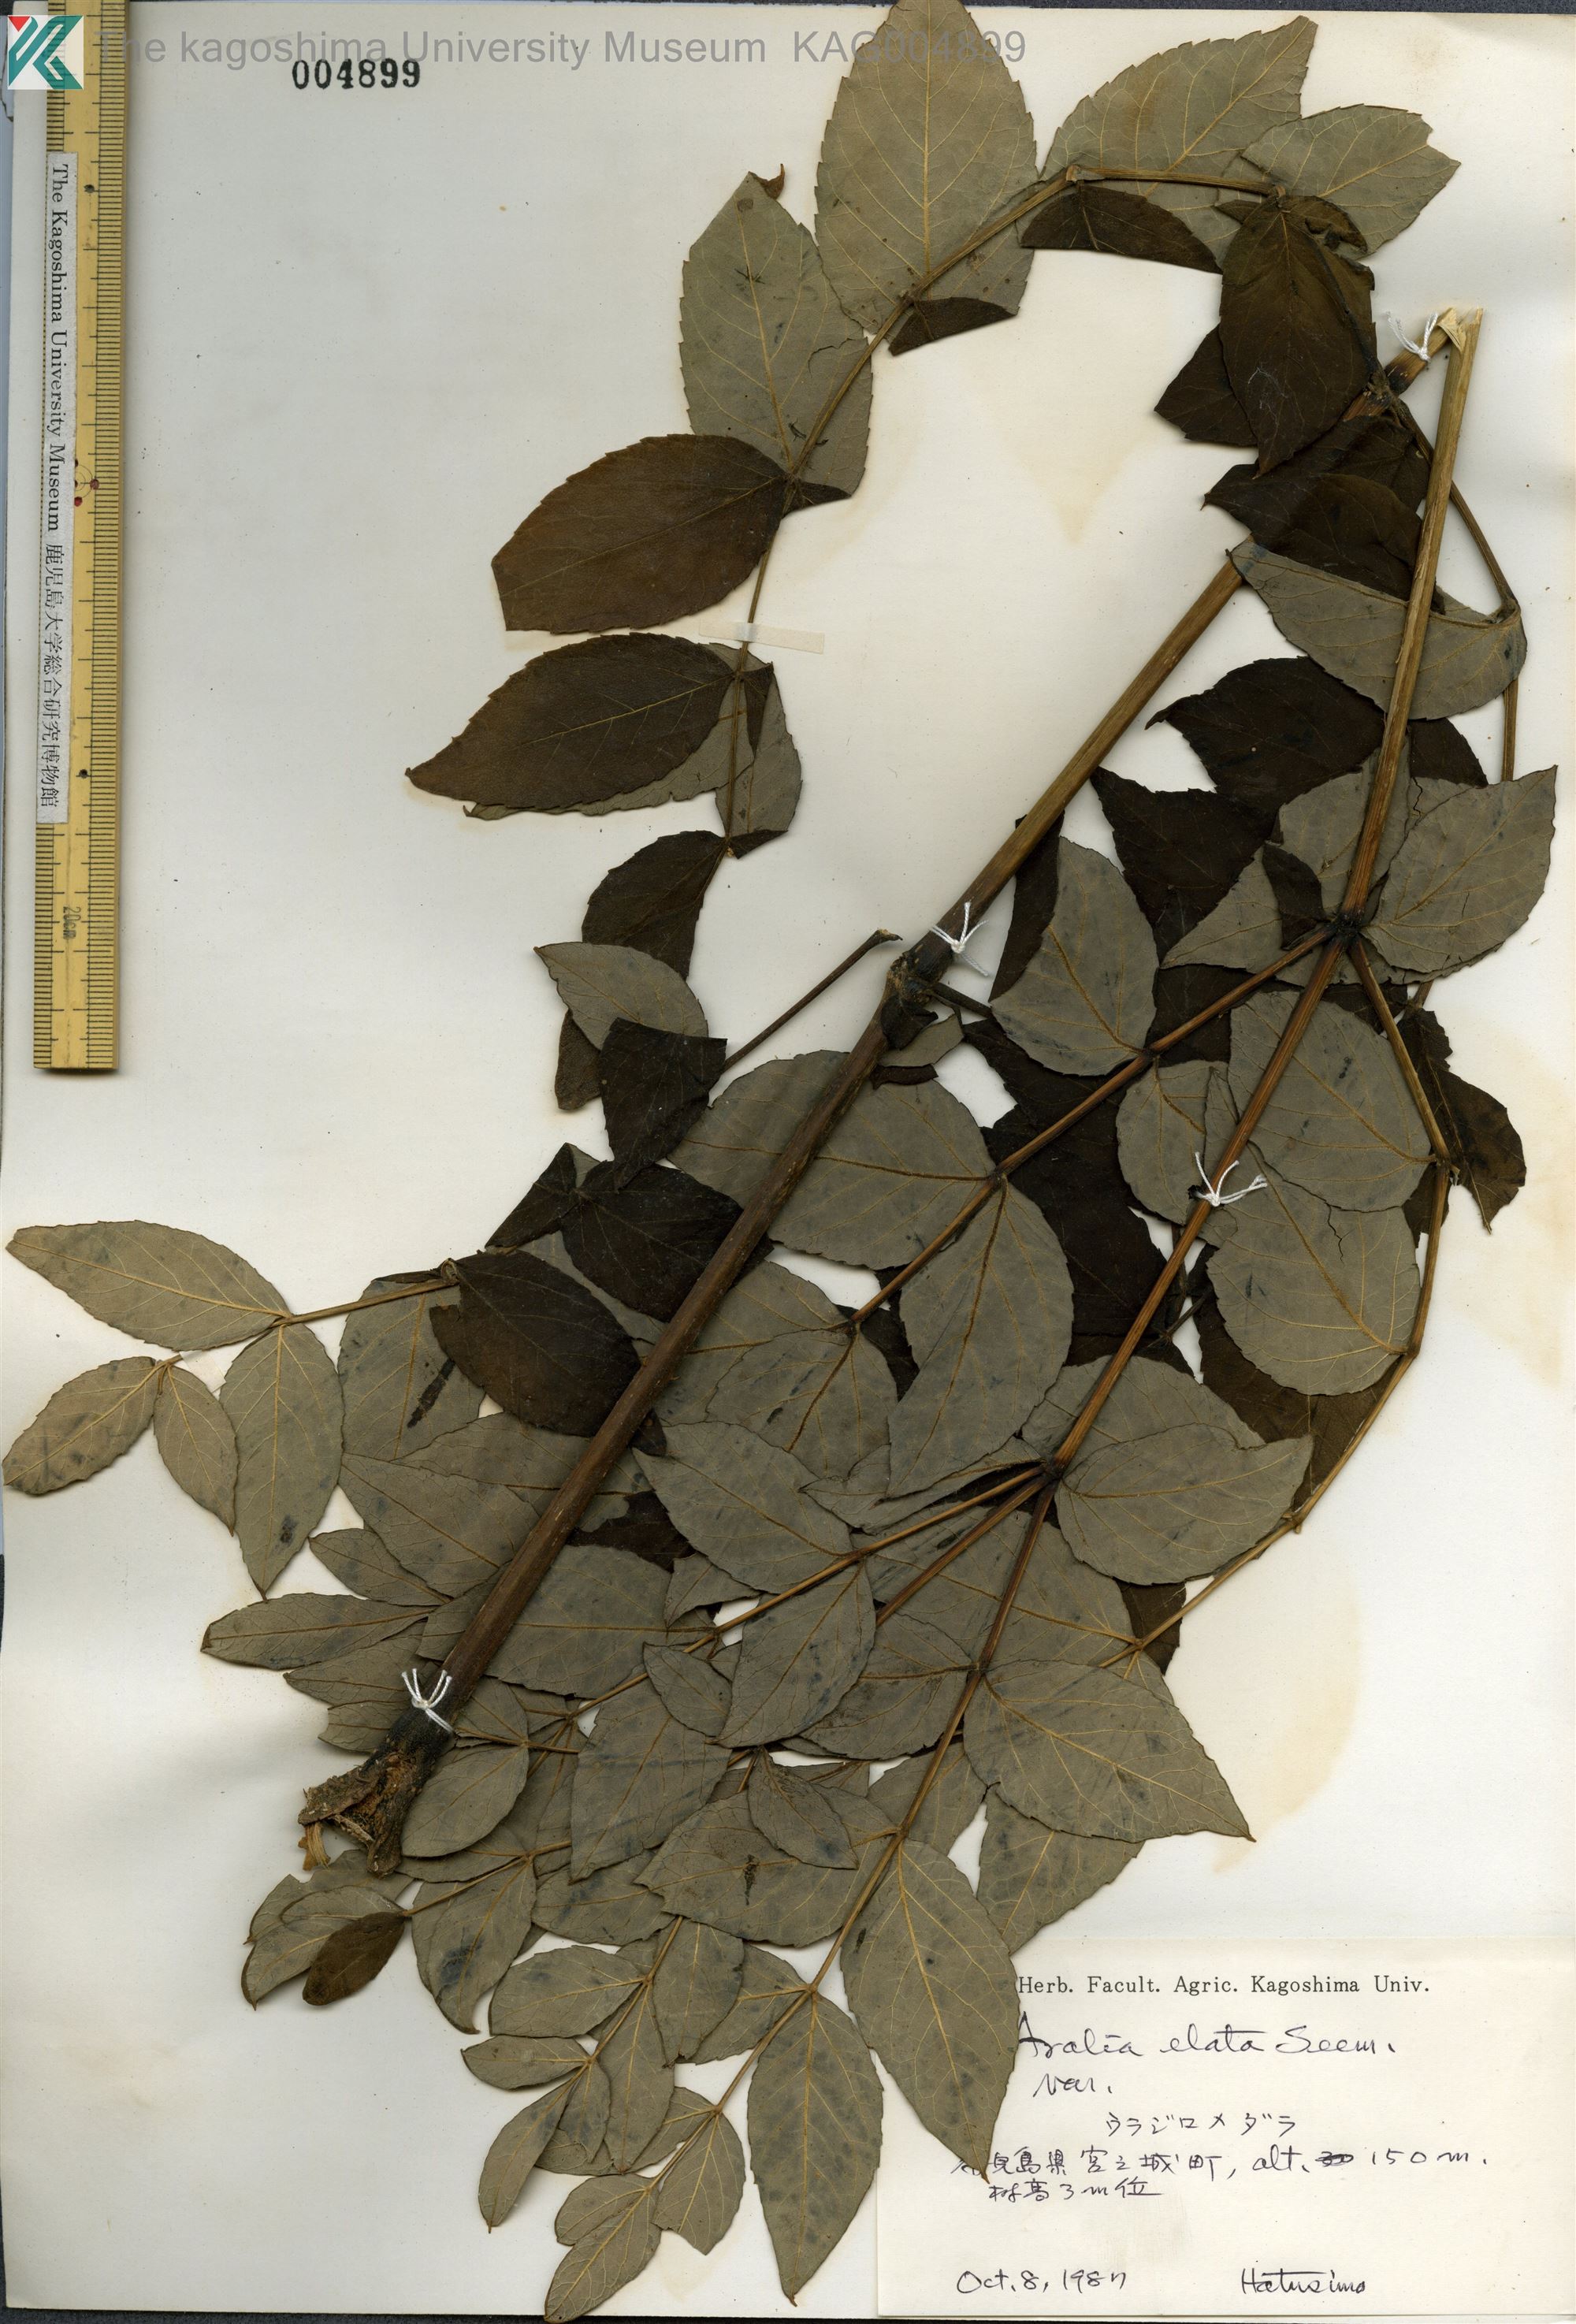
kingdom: Plantae
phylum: Tracheophyta
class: Magnoliopsida
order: Apiales
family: Araliaceae
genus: Aralia
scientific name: Aralia elata
